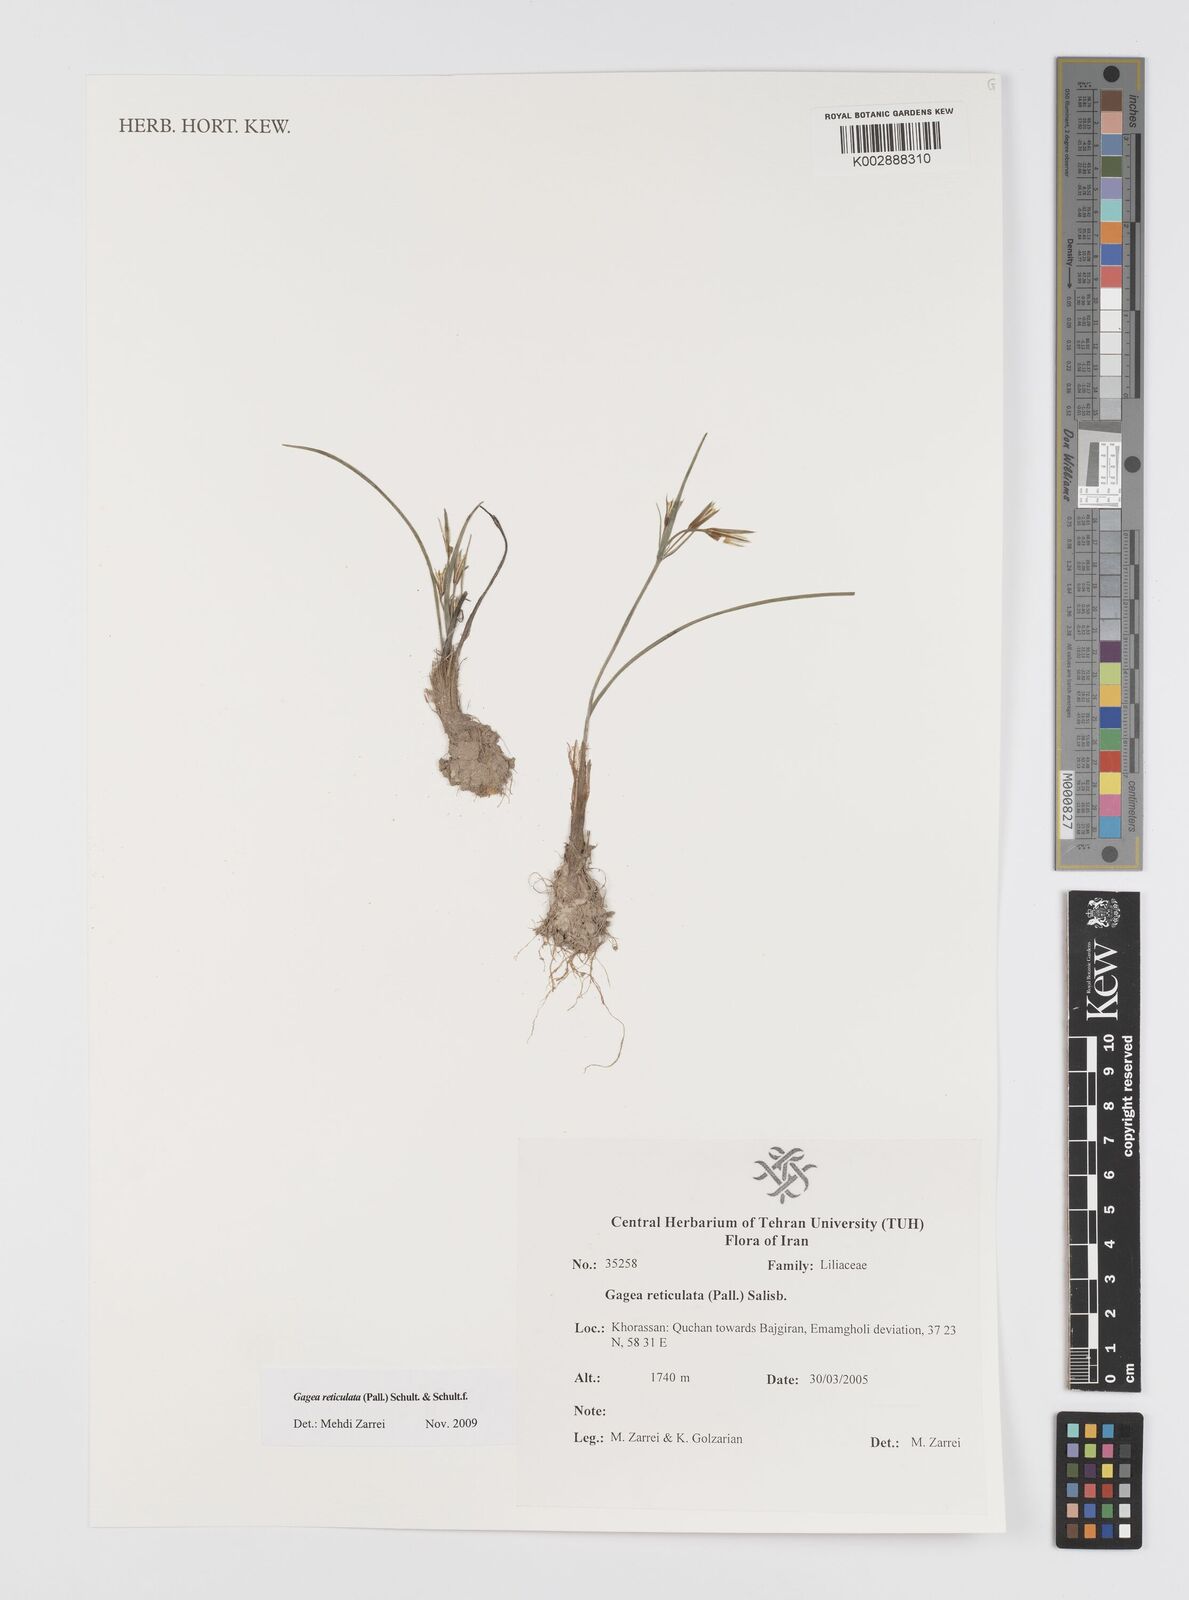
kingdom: Plantae
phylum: Tracheophyta
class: Liliopsida
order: Liliales
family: Liliaceae
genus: Gagea
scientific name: Gagea reticulata
